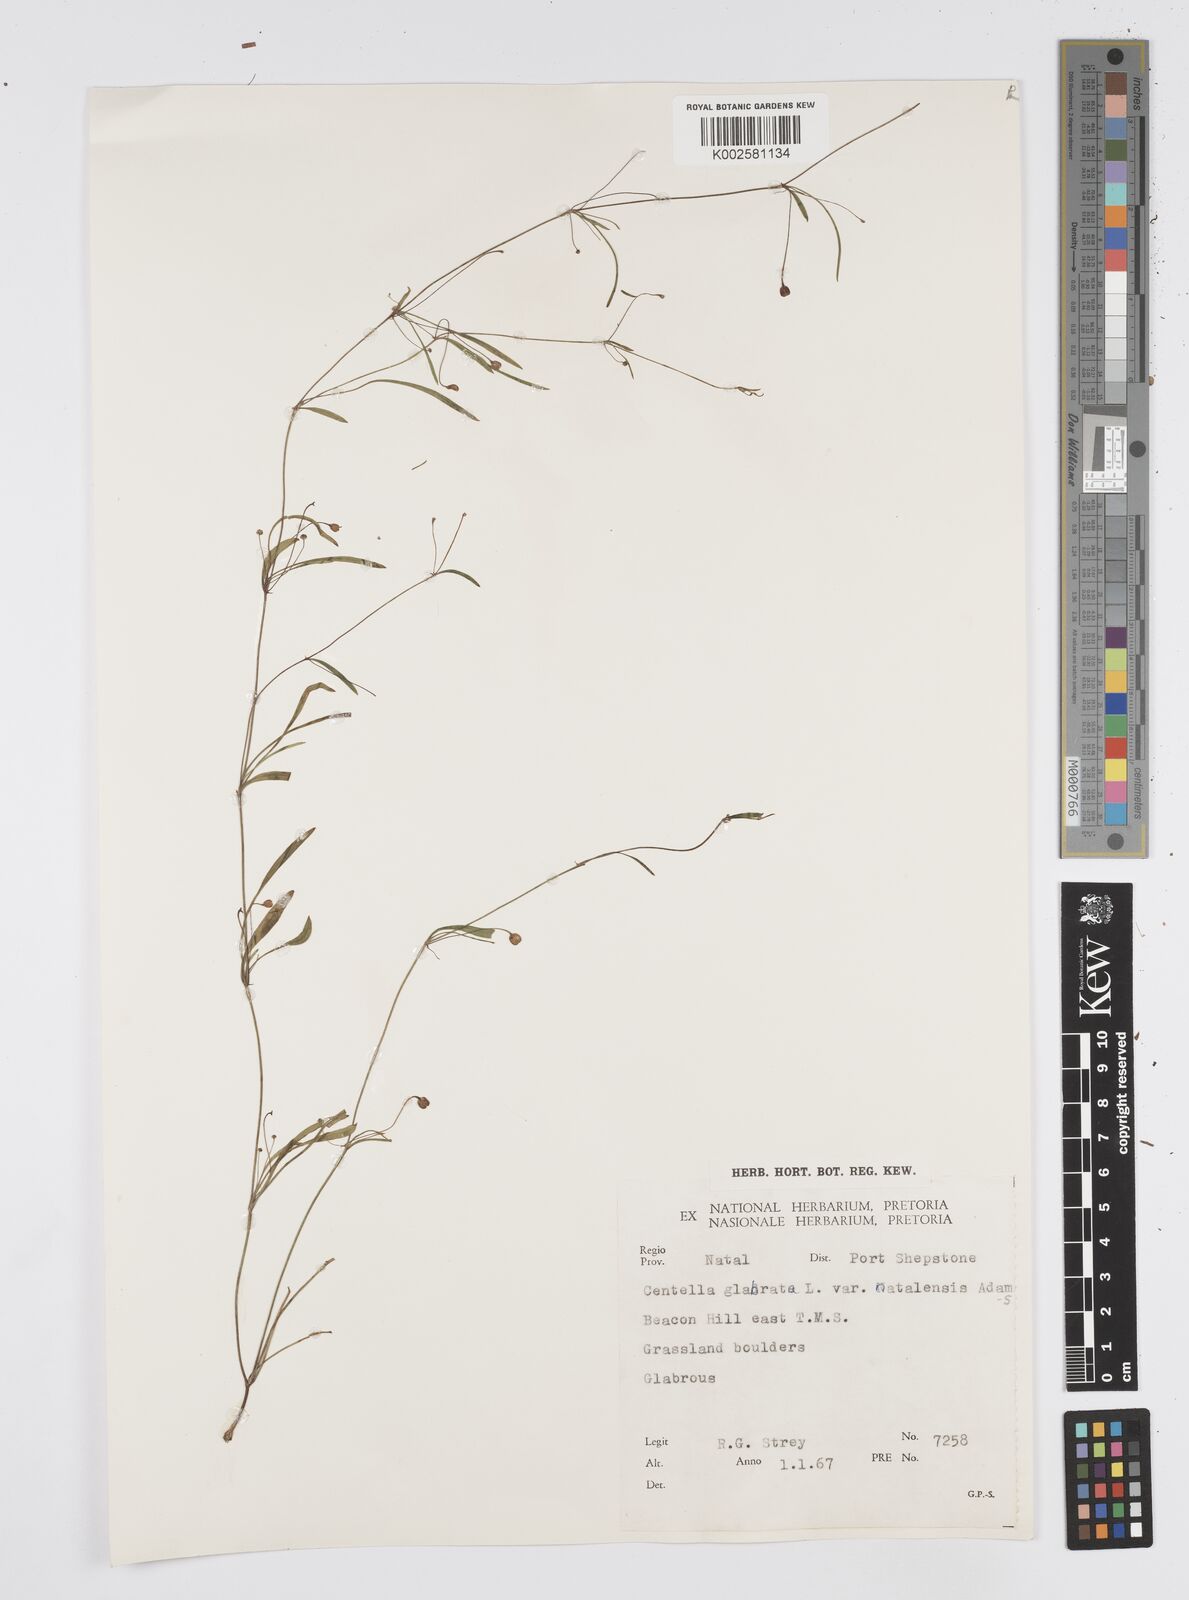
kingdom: Plantae
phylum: Tracheophyta
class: Magnoliopsida
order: Apiales
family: Apiaceae
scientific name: Apiaceae
